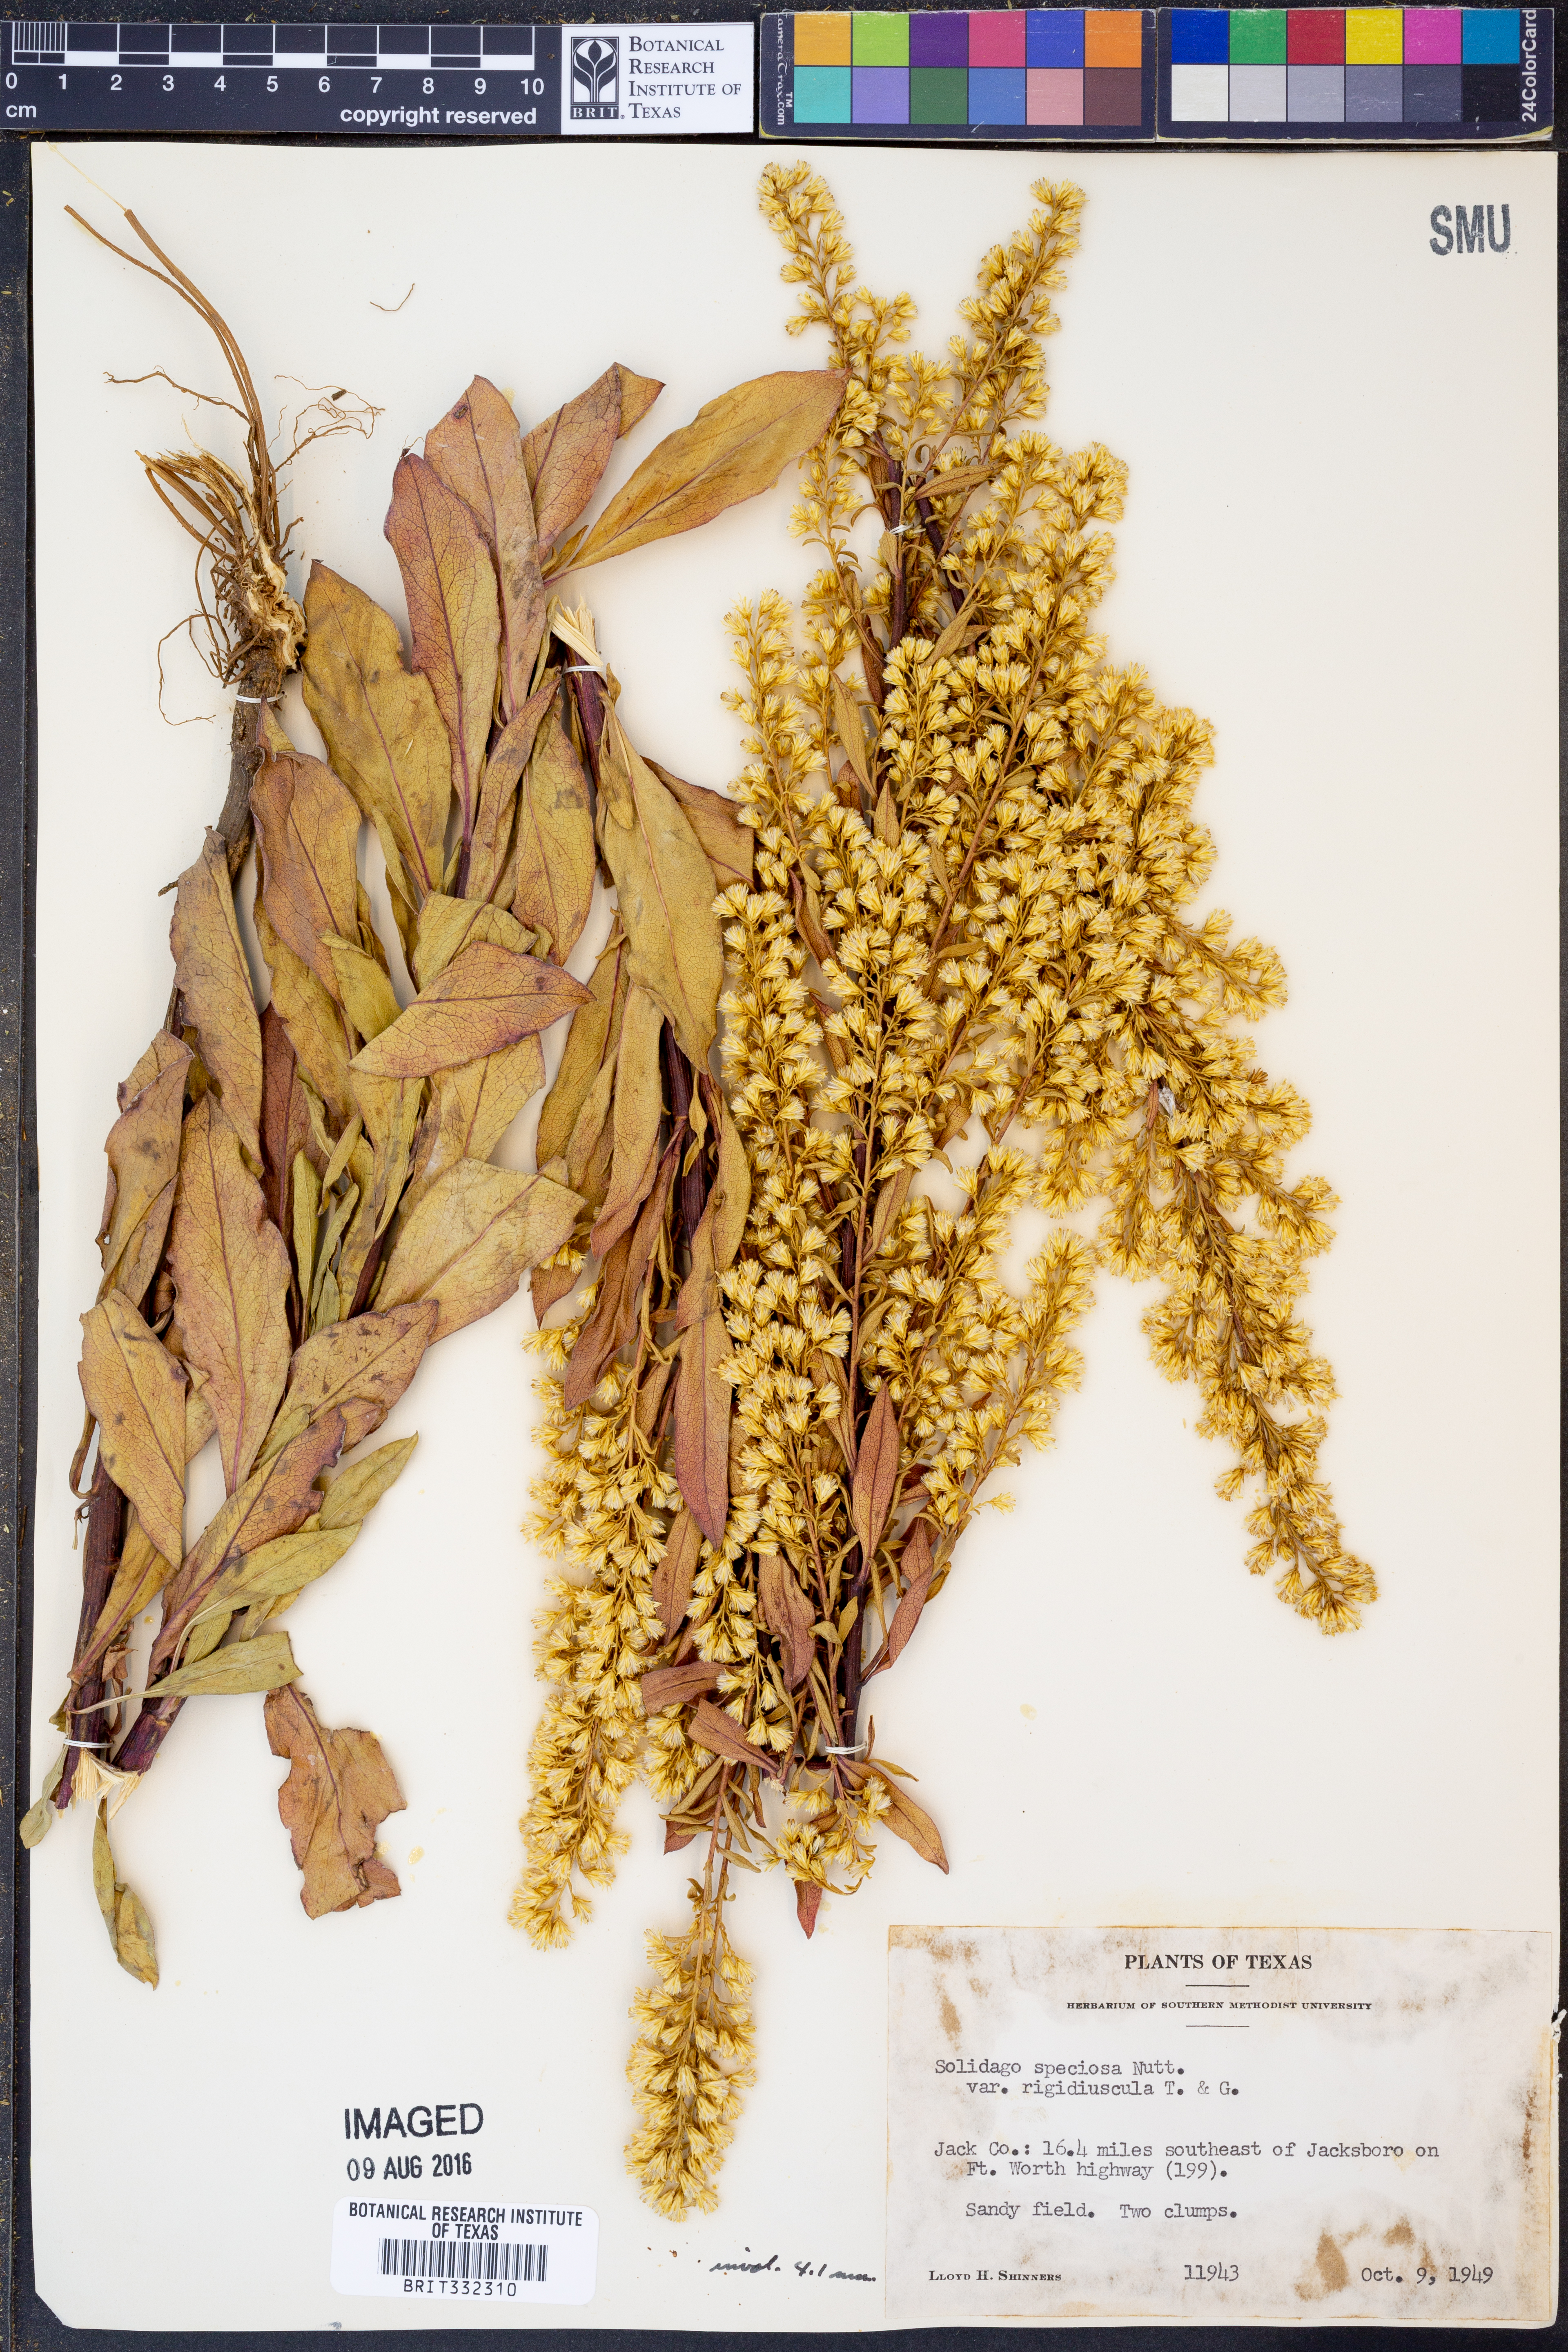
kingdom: Plantae
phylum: Tracheophyta
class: Magnoliopsida
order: Asterales
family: Asteraceae
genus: Solidago
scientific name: Solidago rigidiuscula
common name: Stiff-leaved showy goldenrod
